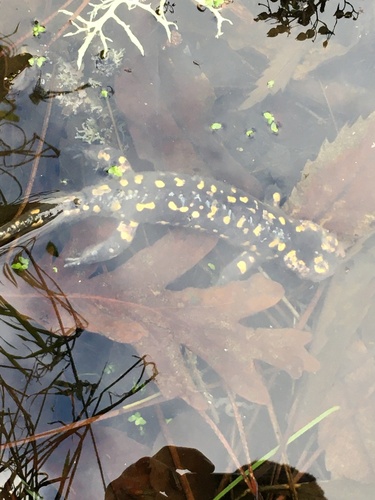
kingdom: Animalia
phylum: Chordata
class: Amphibia
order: Caudata
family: Salamandridae
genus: Salamandra
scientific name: Salamandra salamandra
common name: Fire salamander
